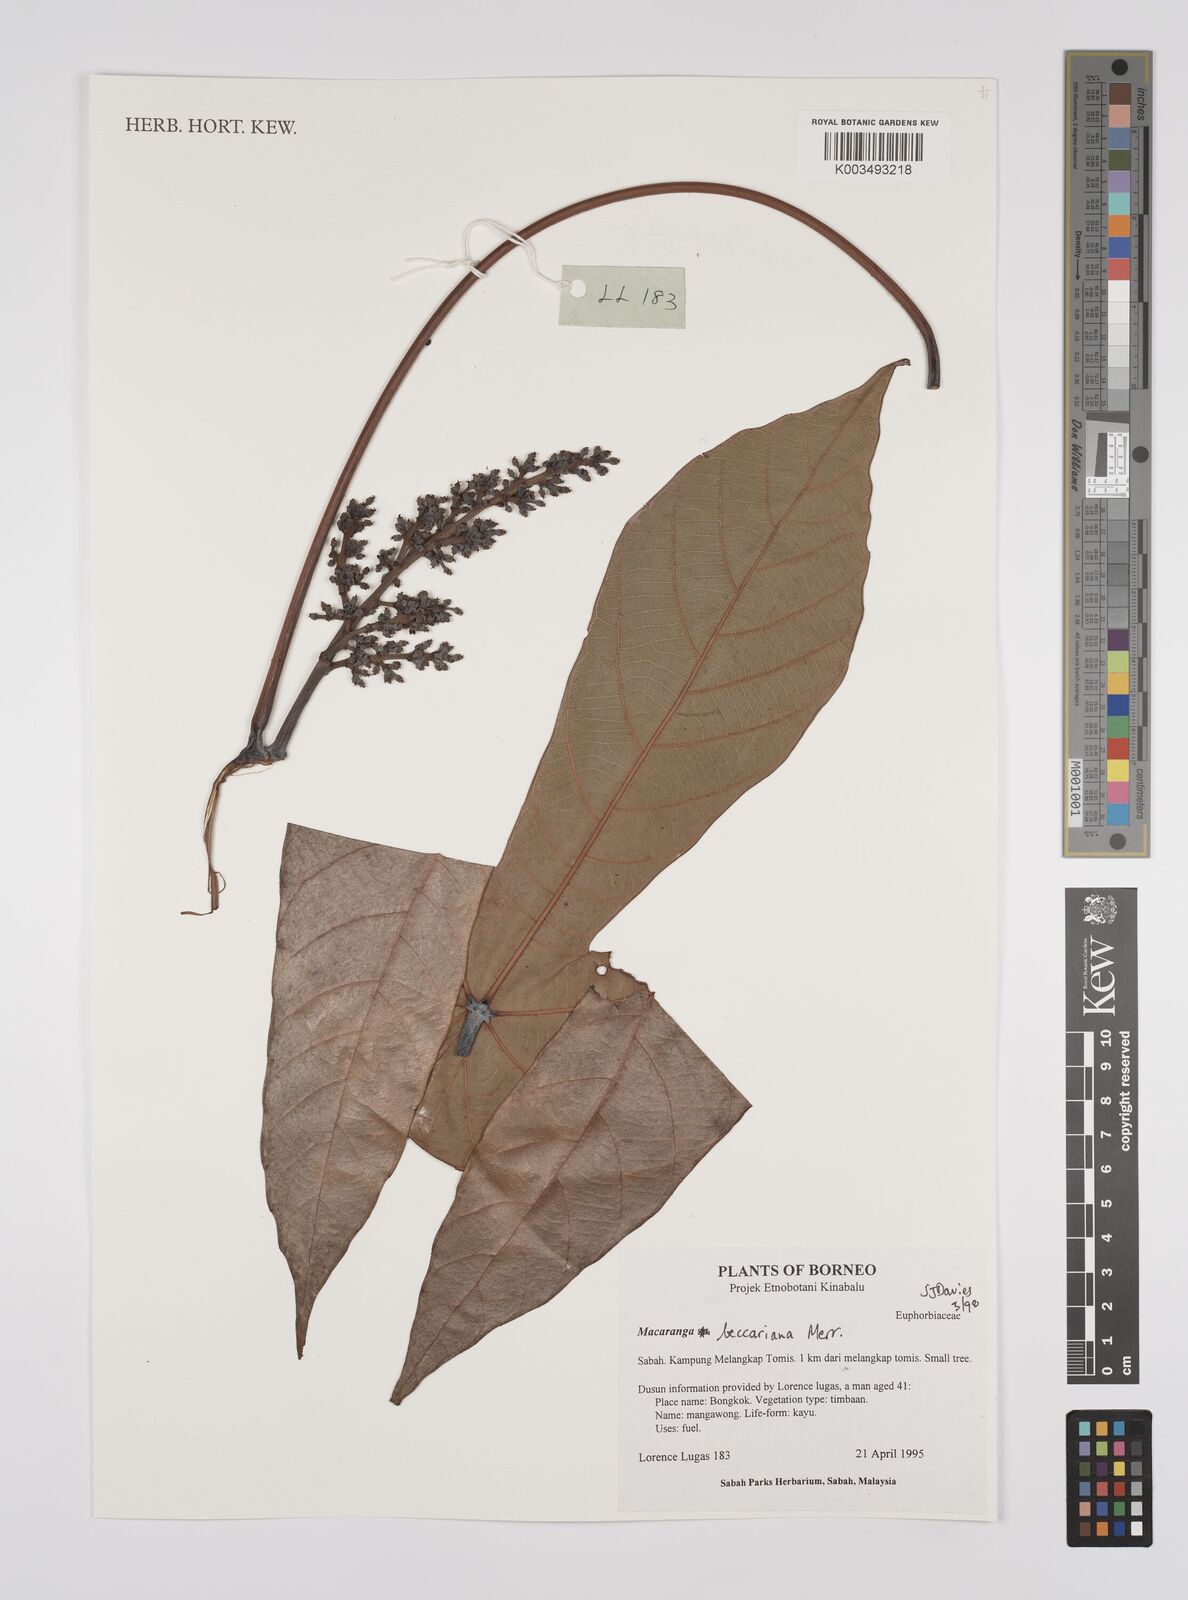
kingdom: Plantae
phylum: Tracheophyta
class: Magnoliopsida
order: Malpighiales
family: Euphorbiaceae
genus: Macaranga
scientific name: Macaranga beccariana
